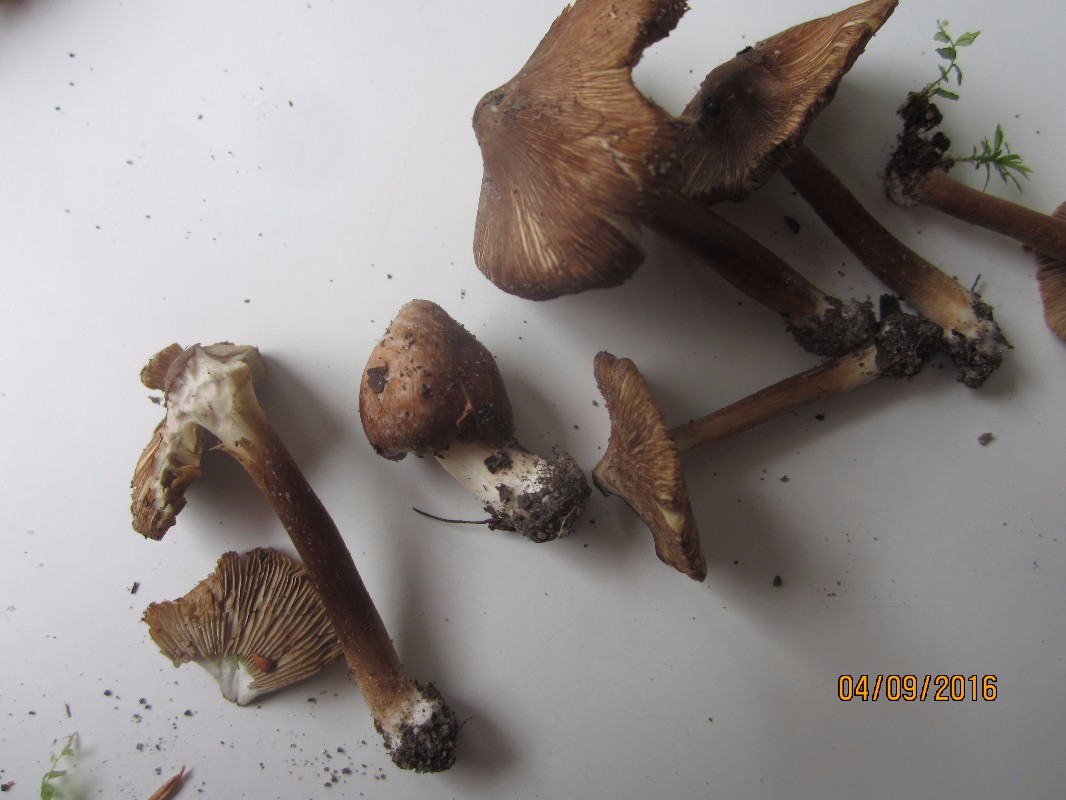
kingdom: Fungi
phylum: Basidiomycota
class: Agaricomycetes
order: Agaricales
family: Inocybaceae
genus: Inosperma
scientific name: Inosperma
